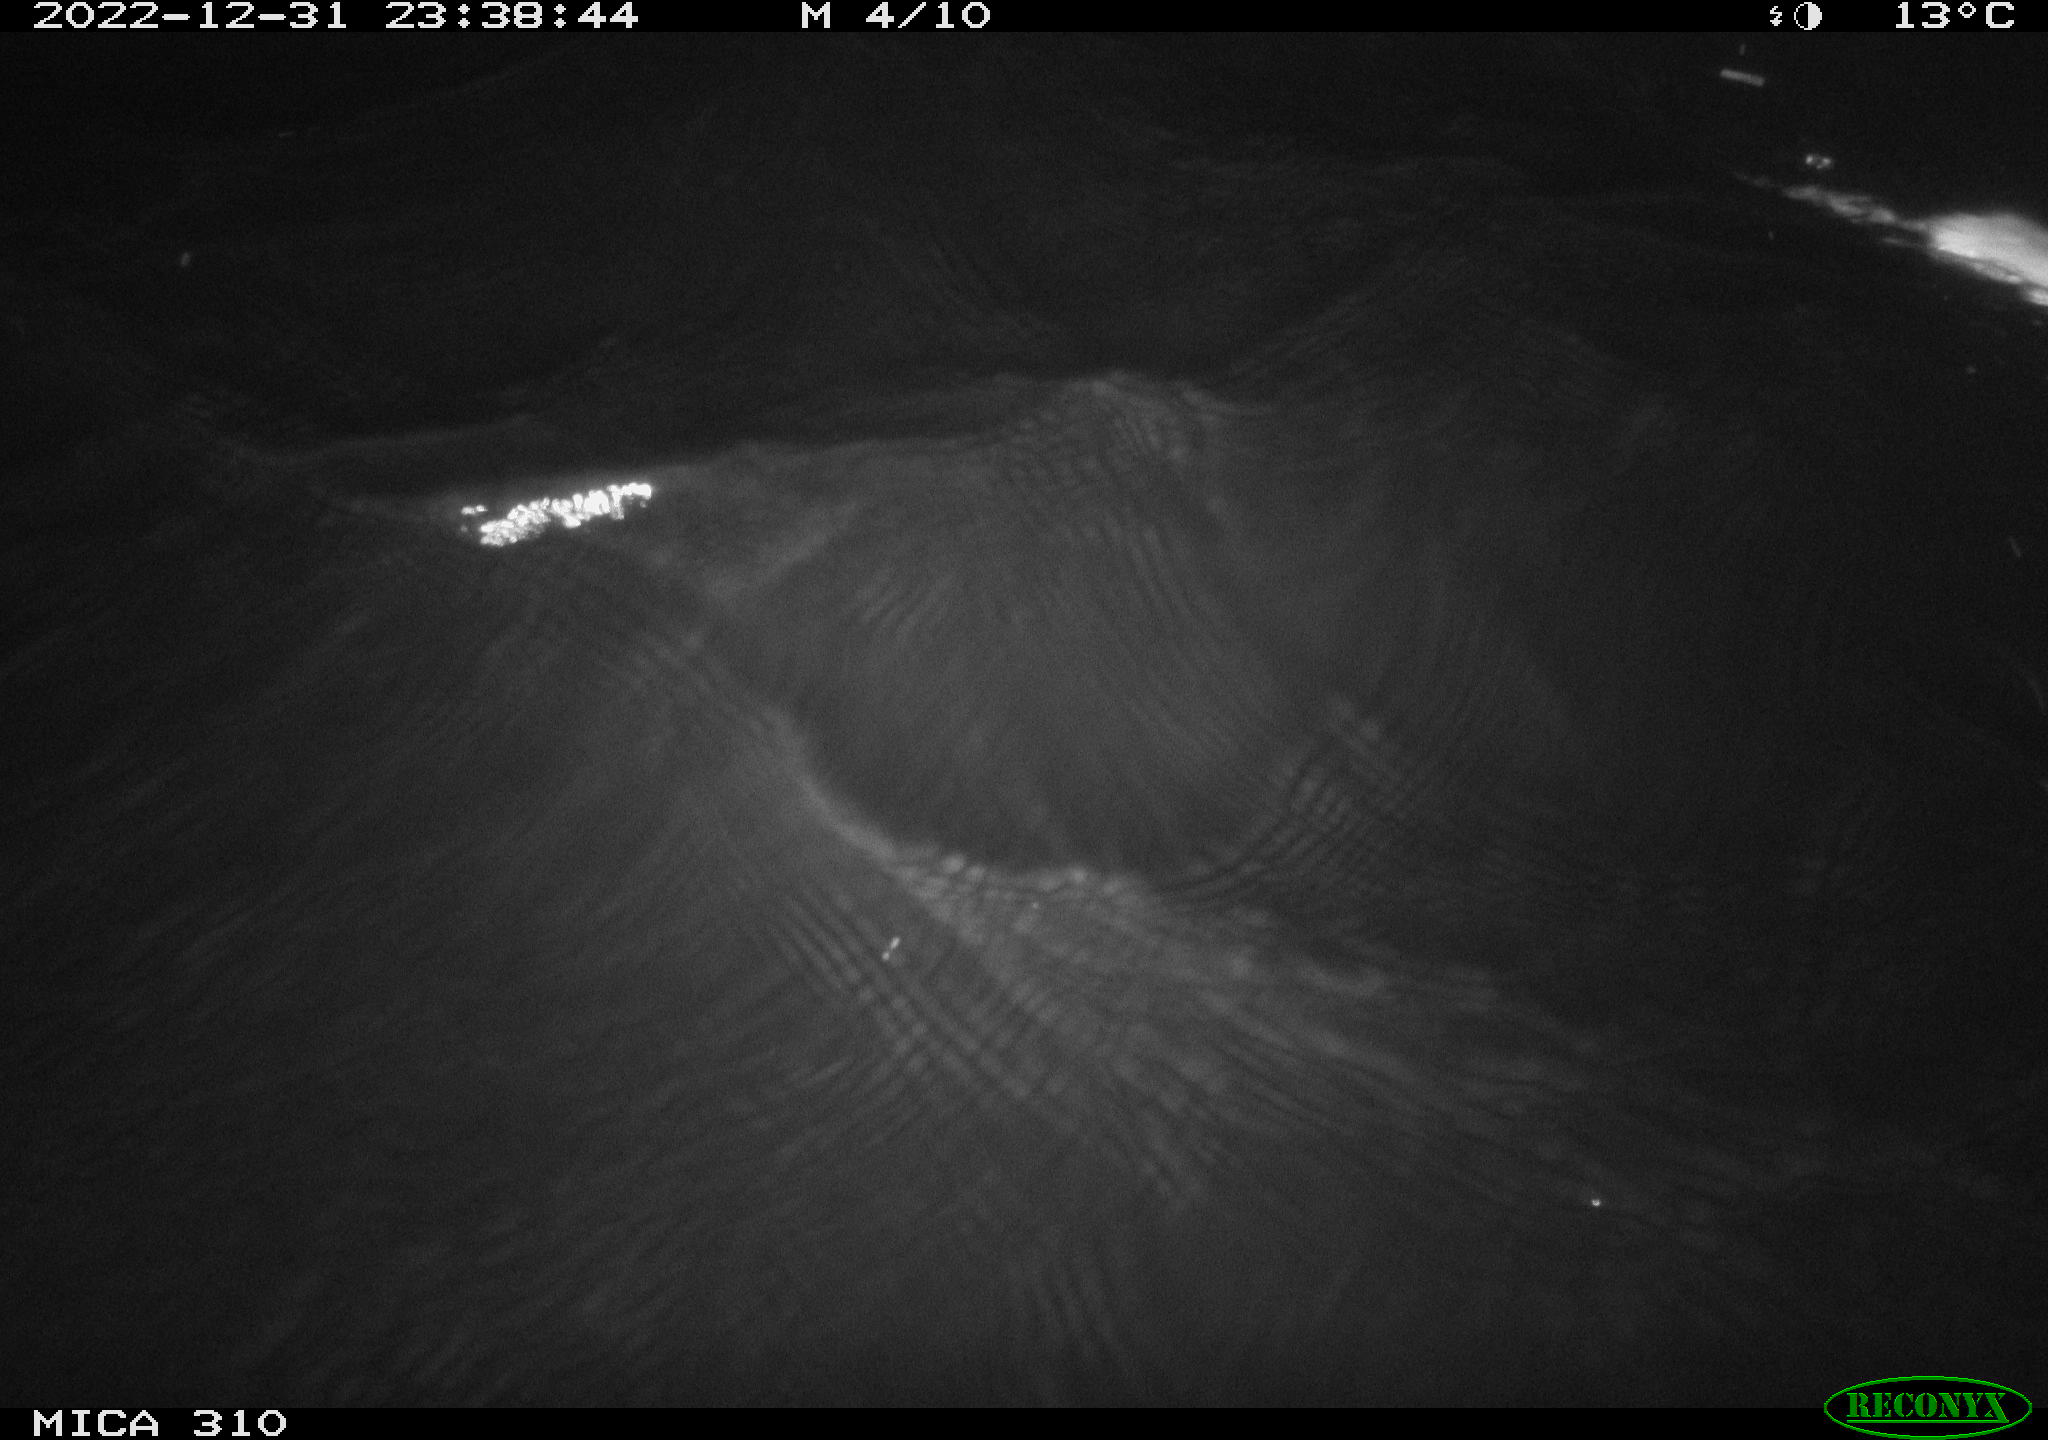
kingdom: Animalia
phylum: Chordata
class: Mammalia
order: Rodentia
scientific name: Rodentia
